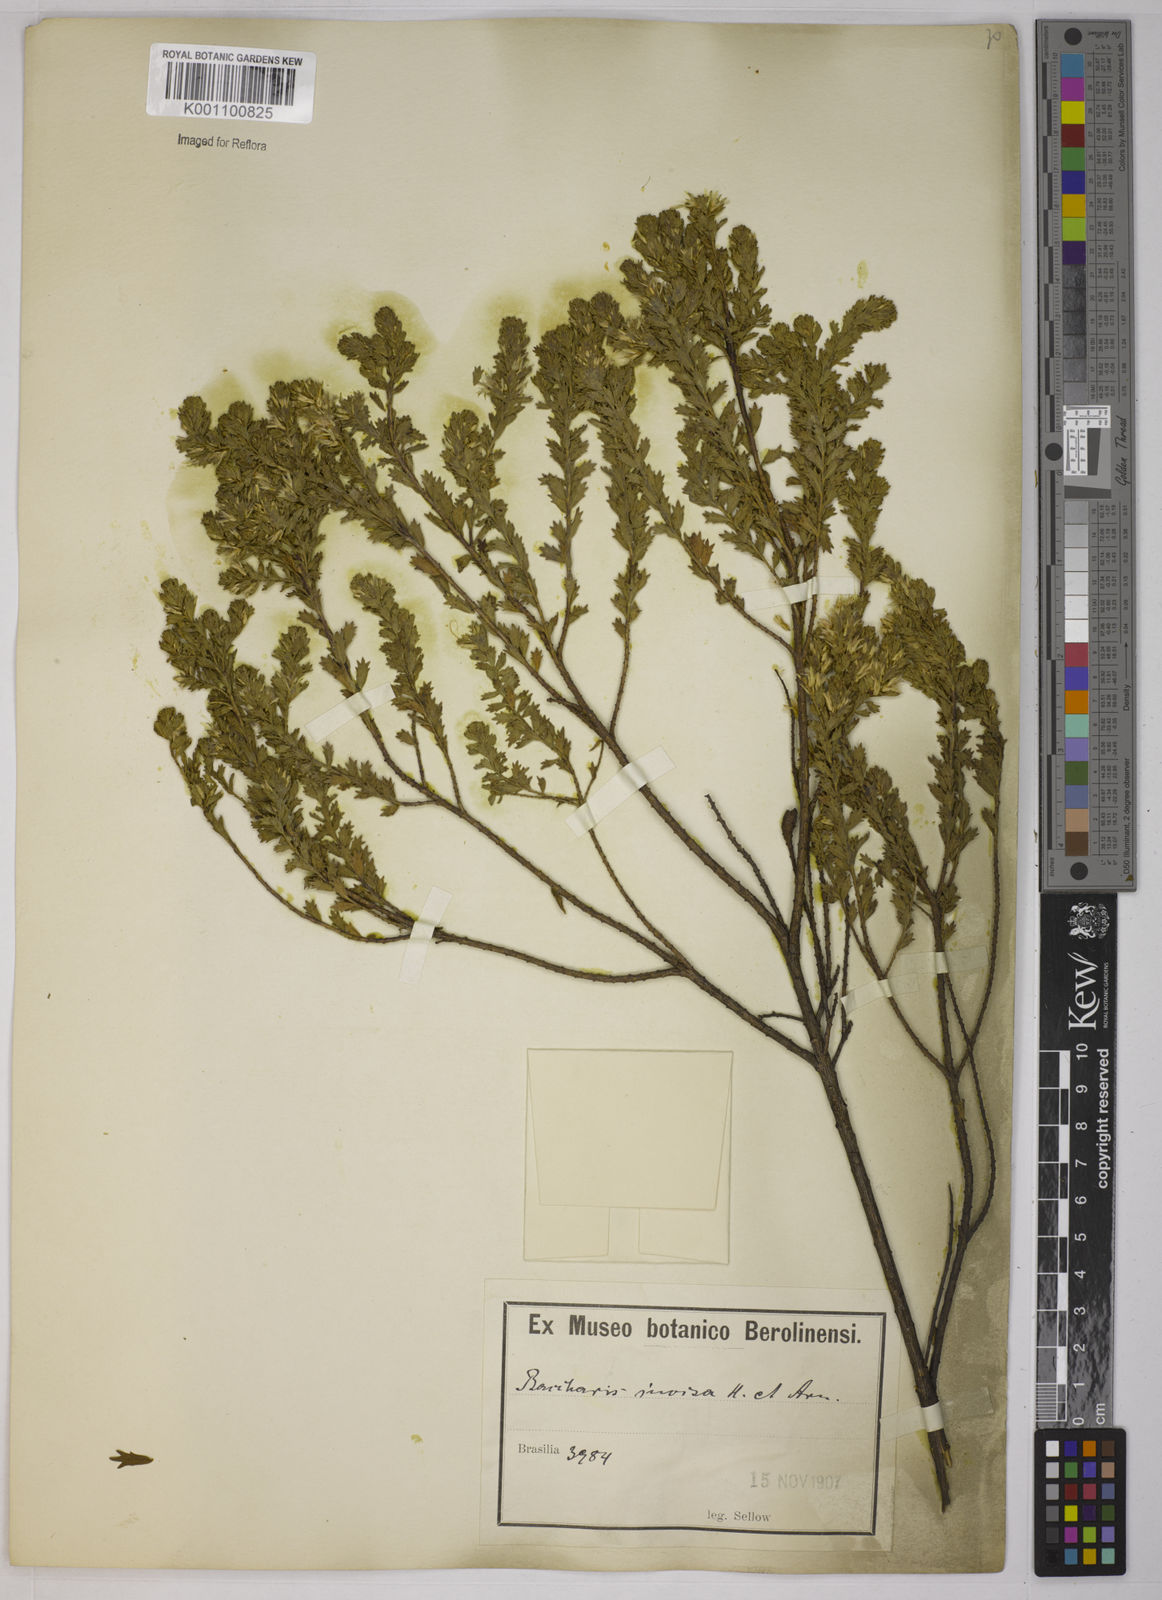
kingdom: Plantae
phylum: Tracheophyta
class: Magnoliopsida
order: Asterales
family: Asteraceae
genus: Baccharis
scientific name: Baccharis incisa
